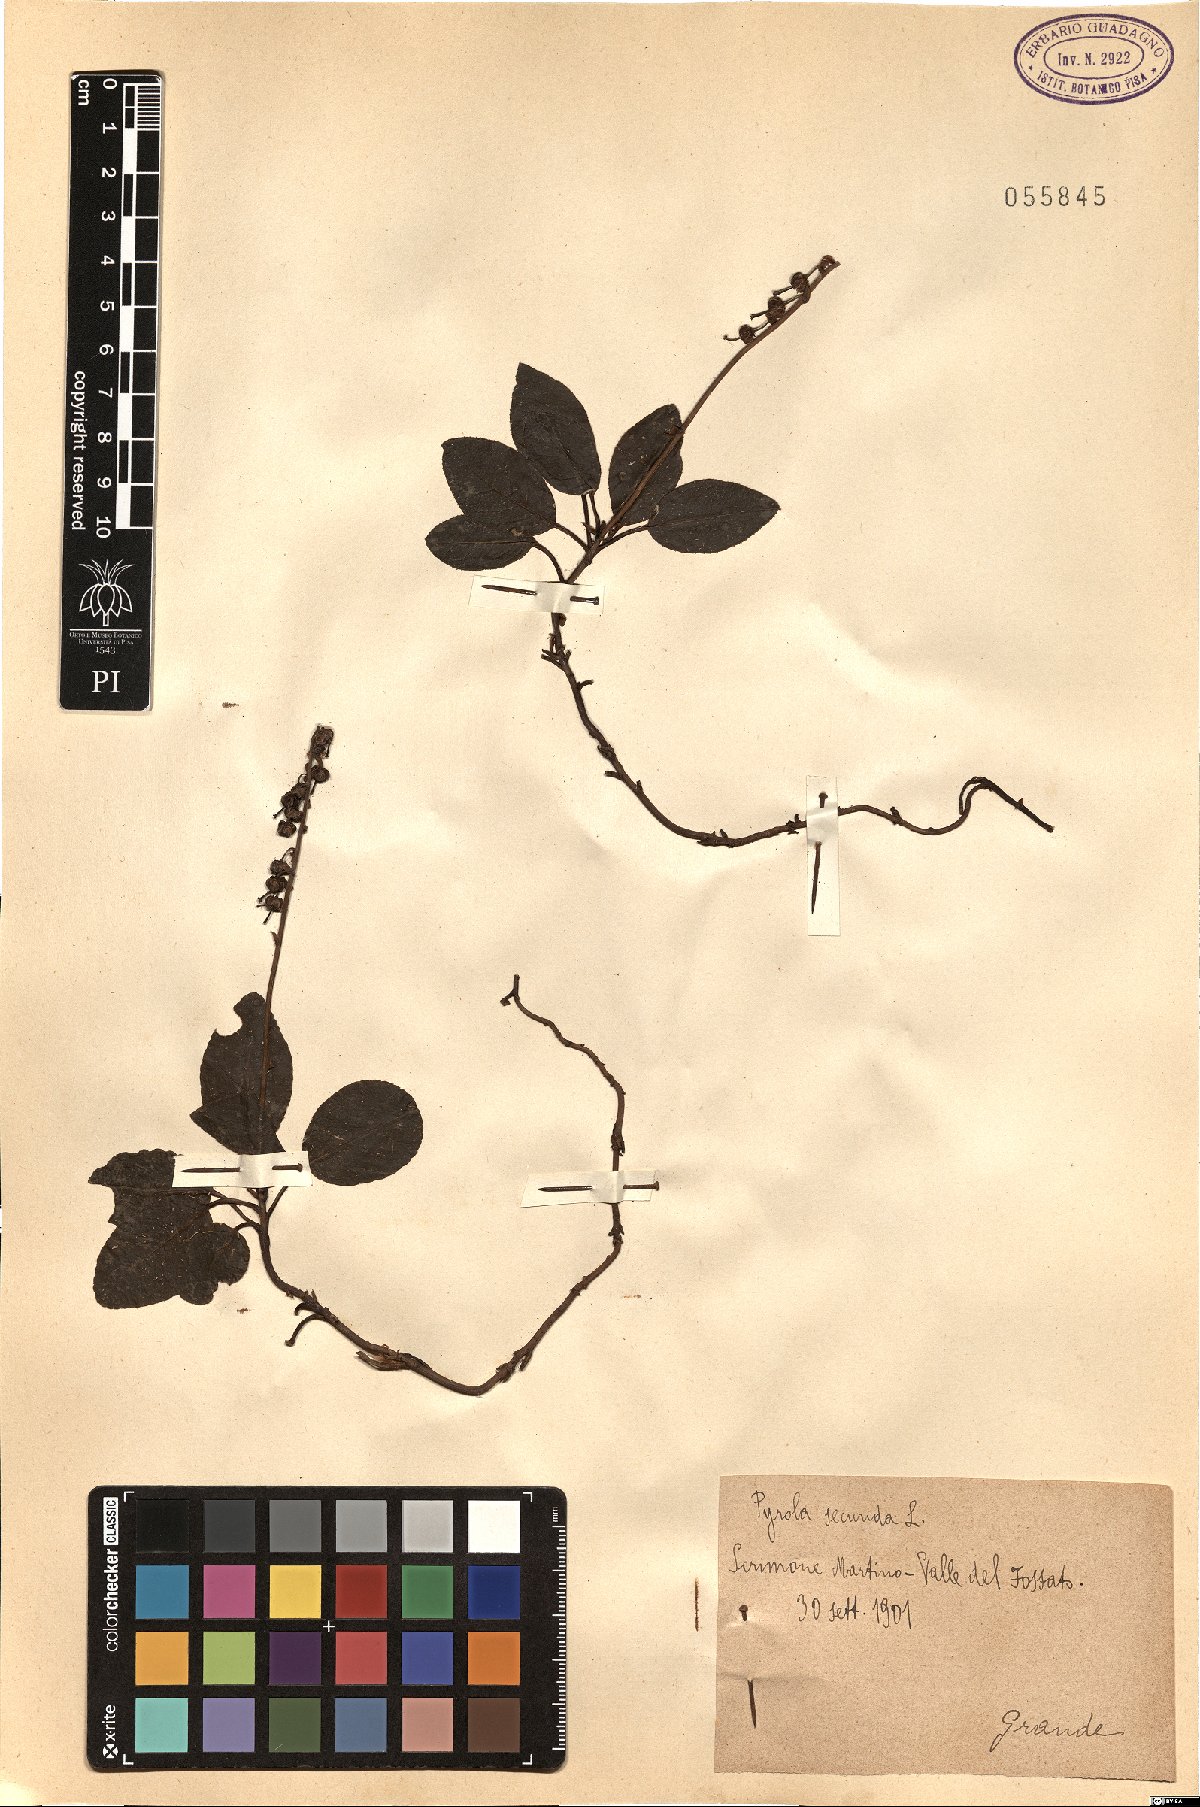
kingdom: Plantae
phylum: Tracheophyta
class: Magnoliopsida
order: Ericales
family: Ericaceae
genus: Orthilia
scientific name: Orthilia secunda
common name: One-sided orthilia
